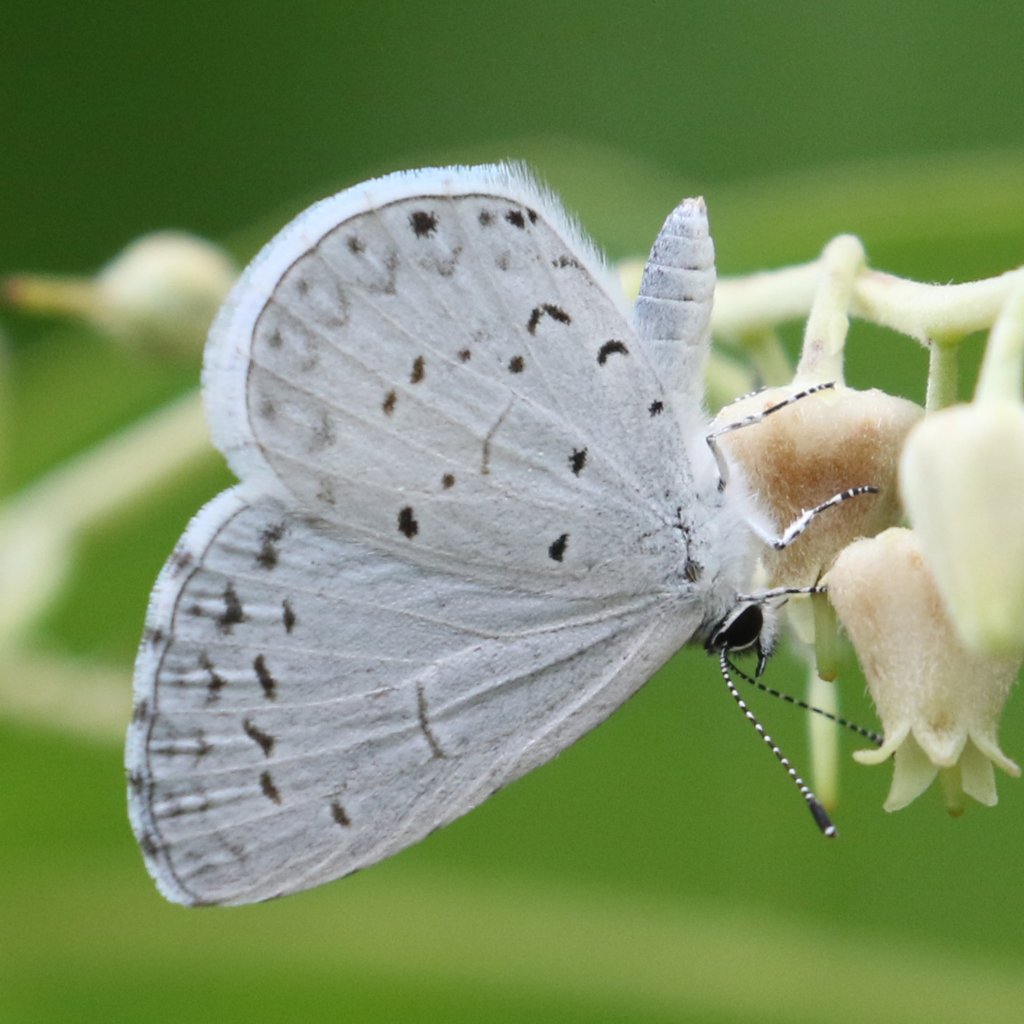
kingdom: Animalia
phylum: Arthropoda
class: Insecta
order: Lepidoptera
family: Lycaenidae
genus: Cyaniris
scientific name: Cyaniris neglecta
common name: Summer Azure
